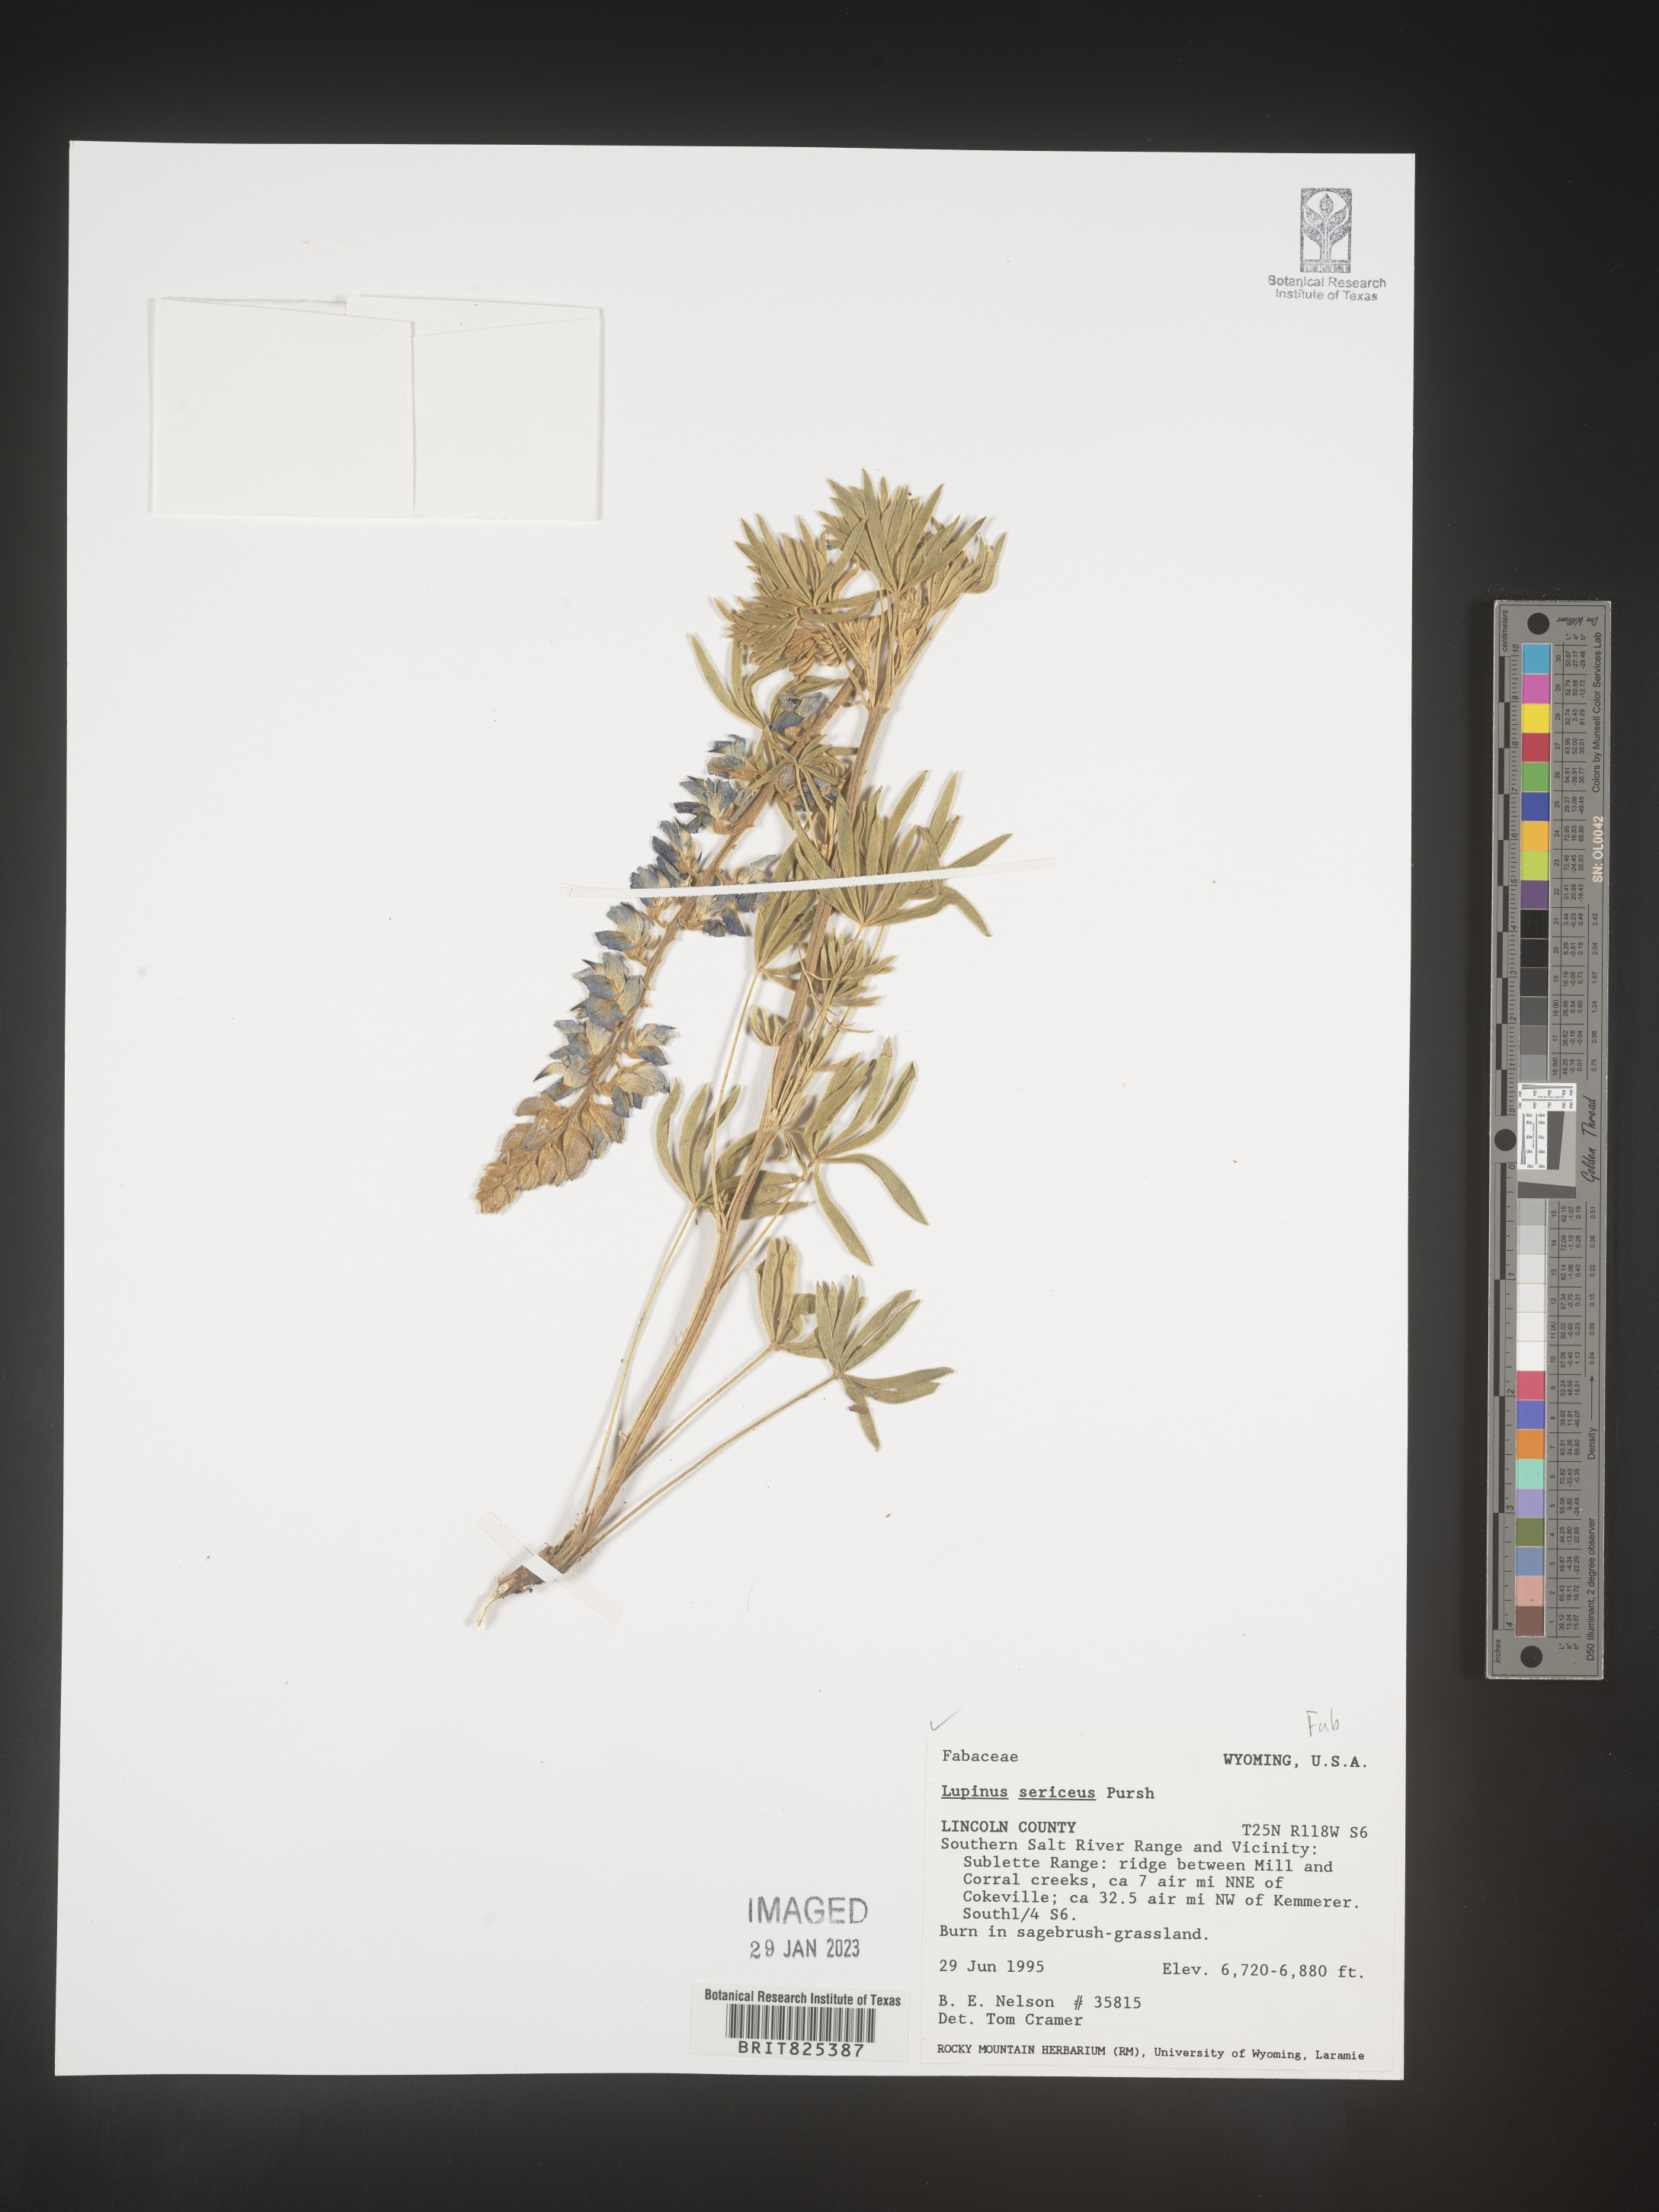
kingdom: Plantae
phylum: Tracheophyta
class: Magnoliopsida
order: Fabales
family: Fabaceae
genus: Lupinus
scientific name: Lupinus sericeus
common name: Silky lupine
